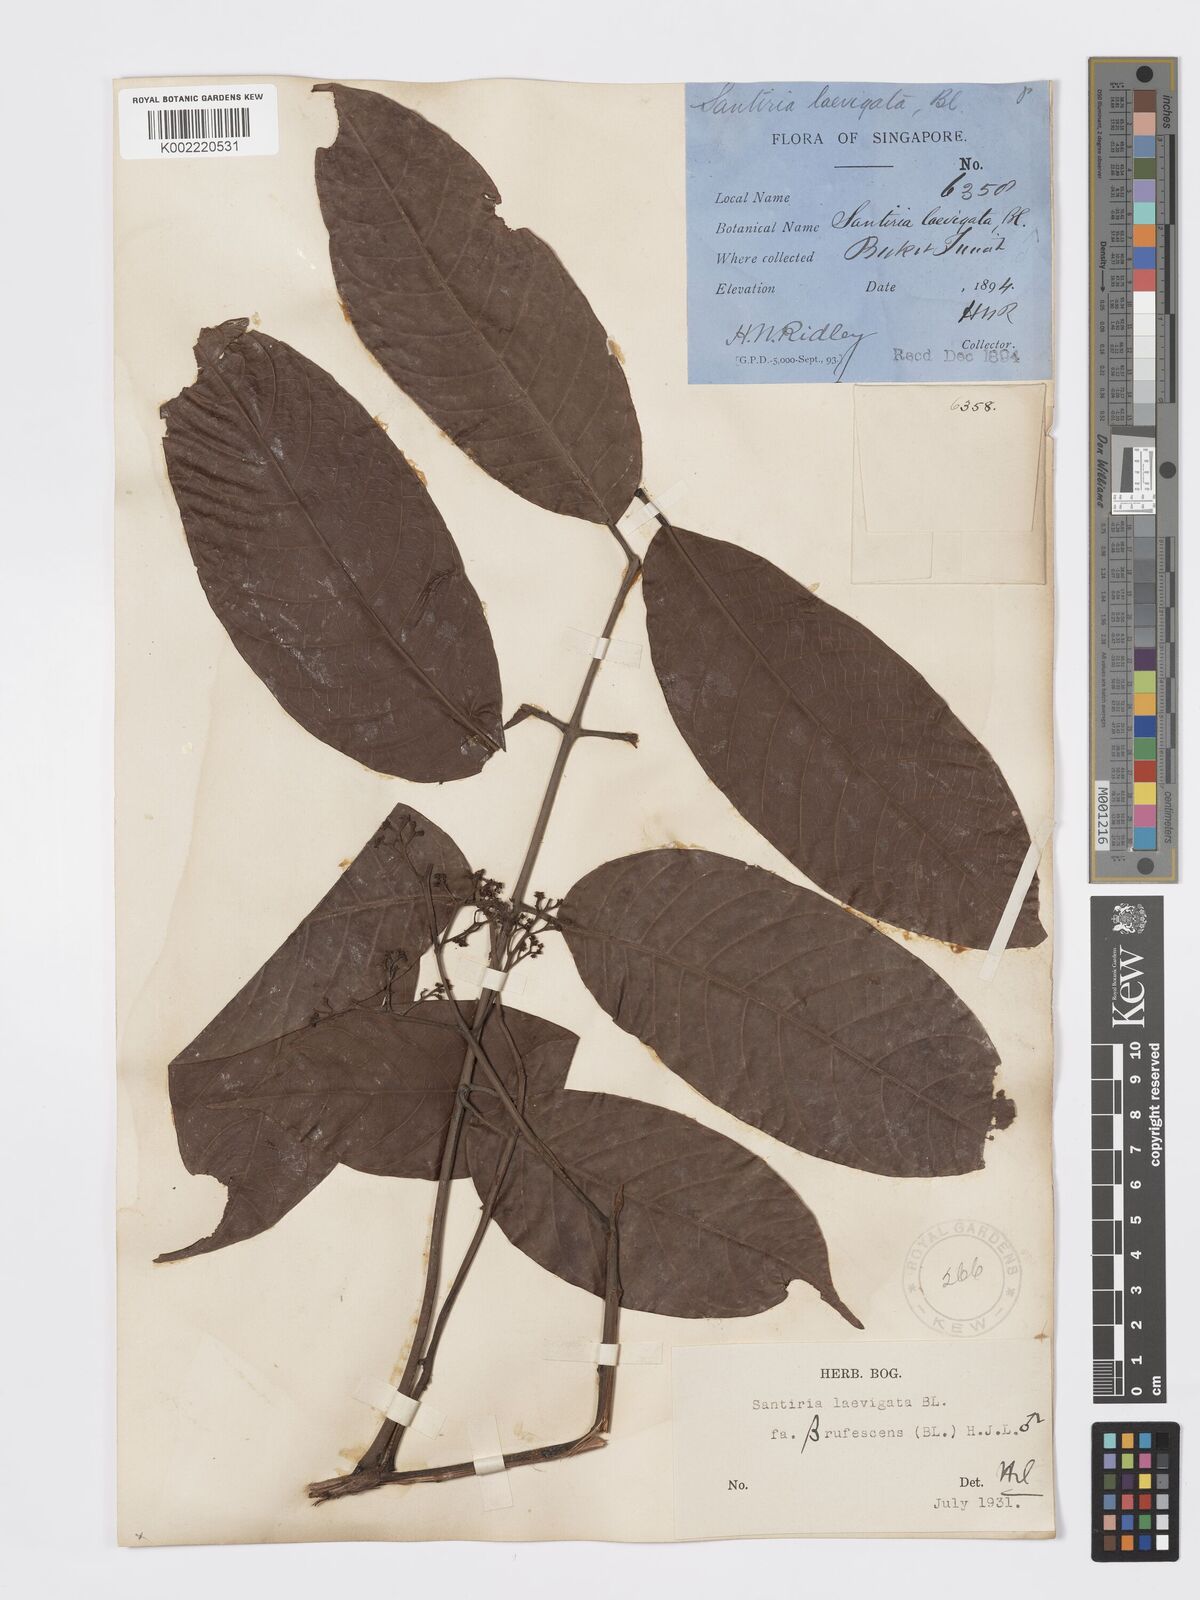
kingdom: Plantae
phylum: Tracheophyta
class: Magnoliopsida
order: Sapindales
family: Burseraceae
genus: Santiria
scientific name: Santiria laevigata
